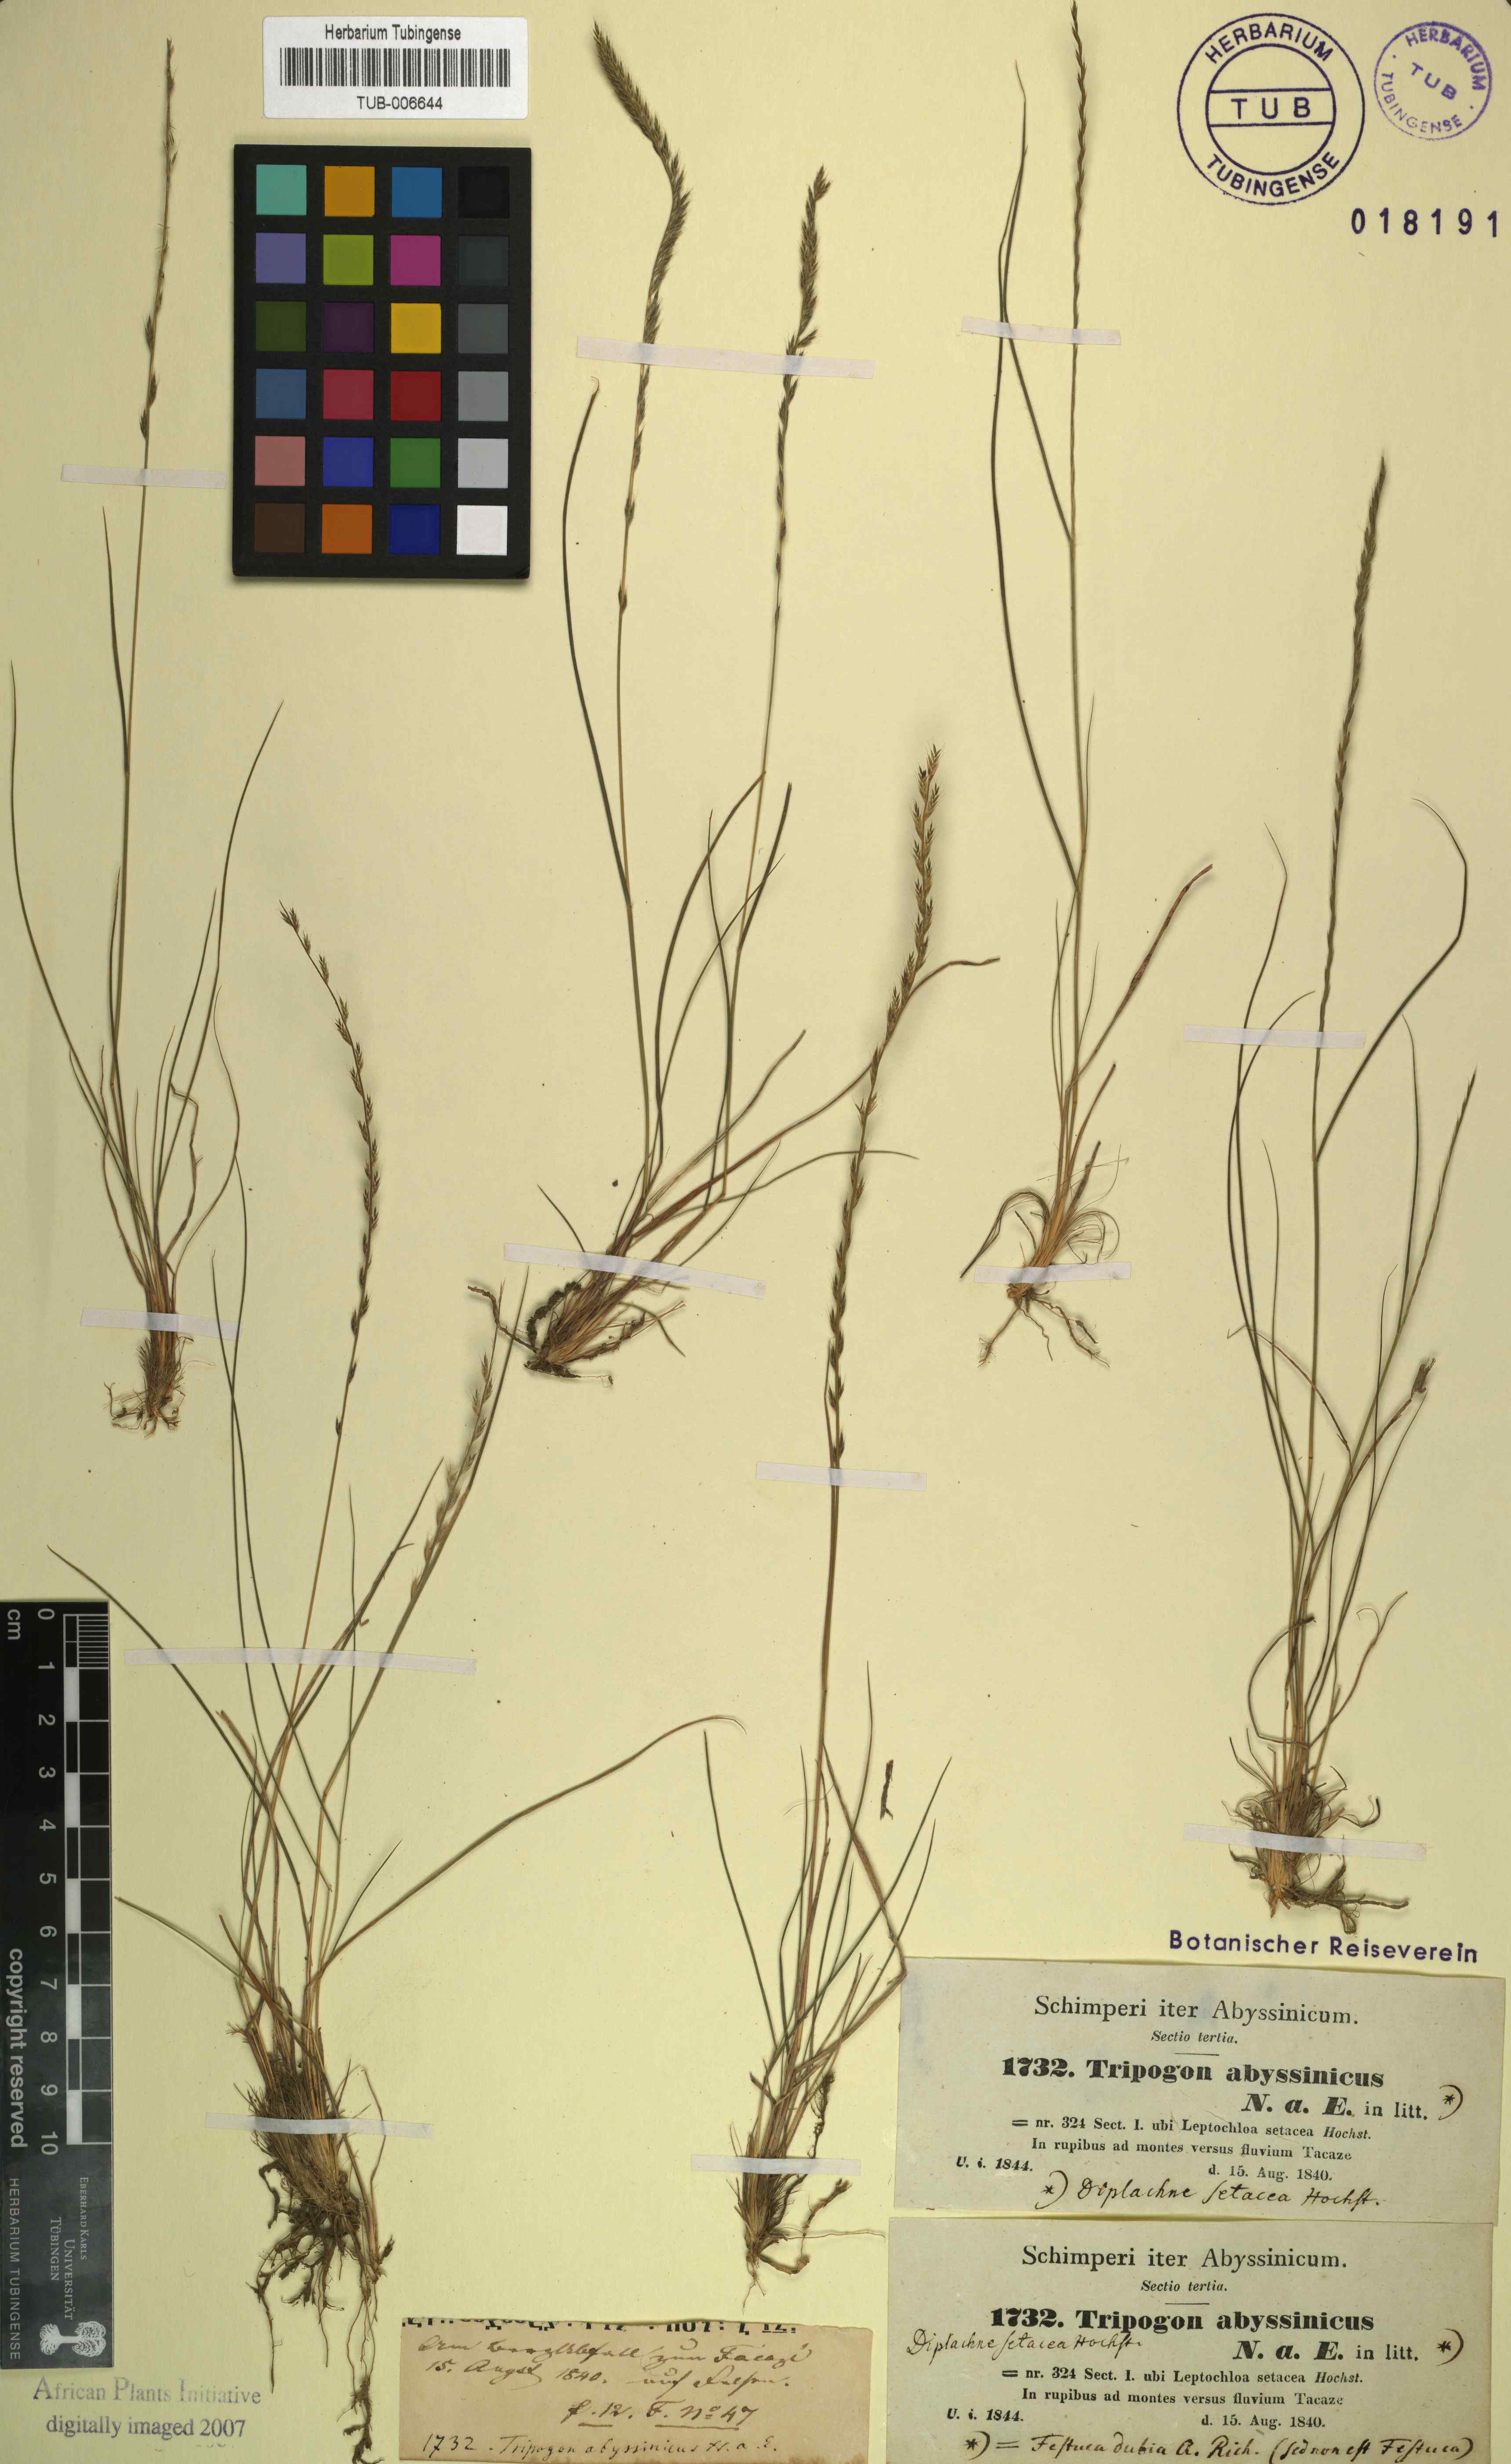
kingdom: Plantae
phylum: Tracheophyta
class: Liliopsida
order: Poales
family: Poaceae
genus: Tripogon
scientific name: Tripogon leptophyllus
